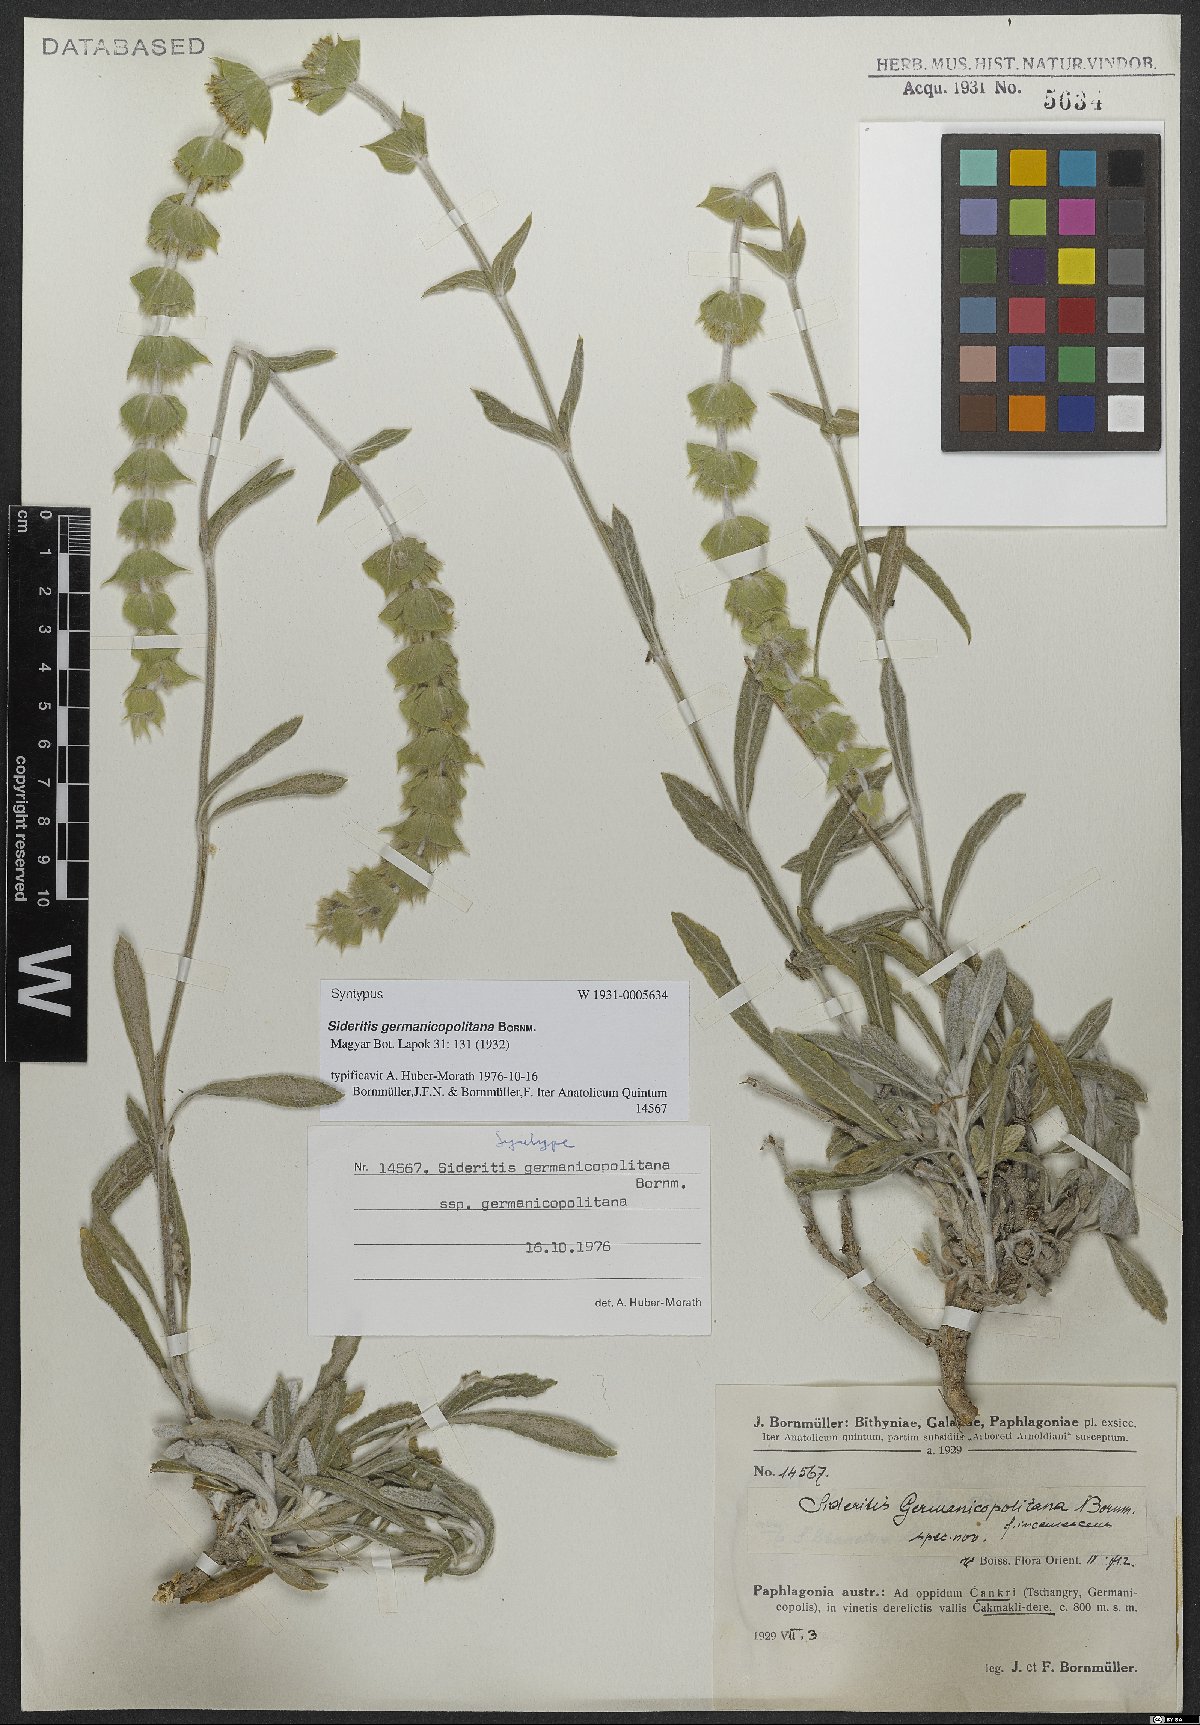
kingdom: Plantae
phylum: Tracheophyta
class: Magnoliopsida
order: Lamiales
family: Lamiaceae
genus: Sideritis
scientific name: Sideritis germanicopolitana
